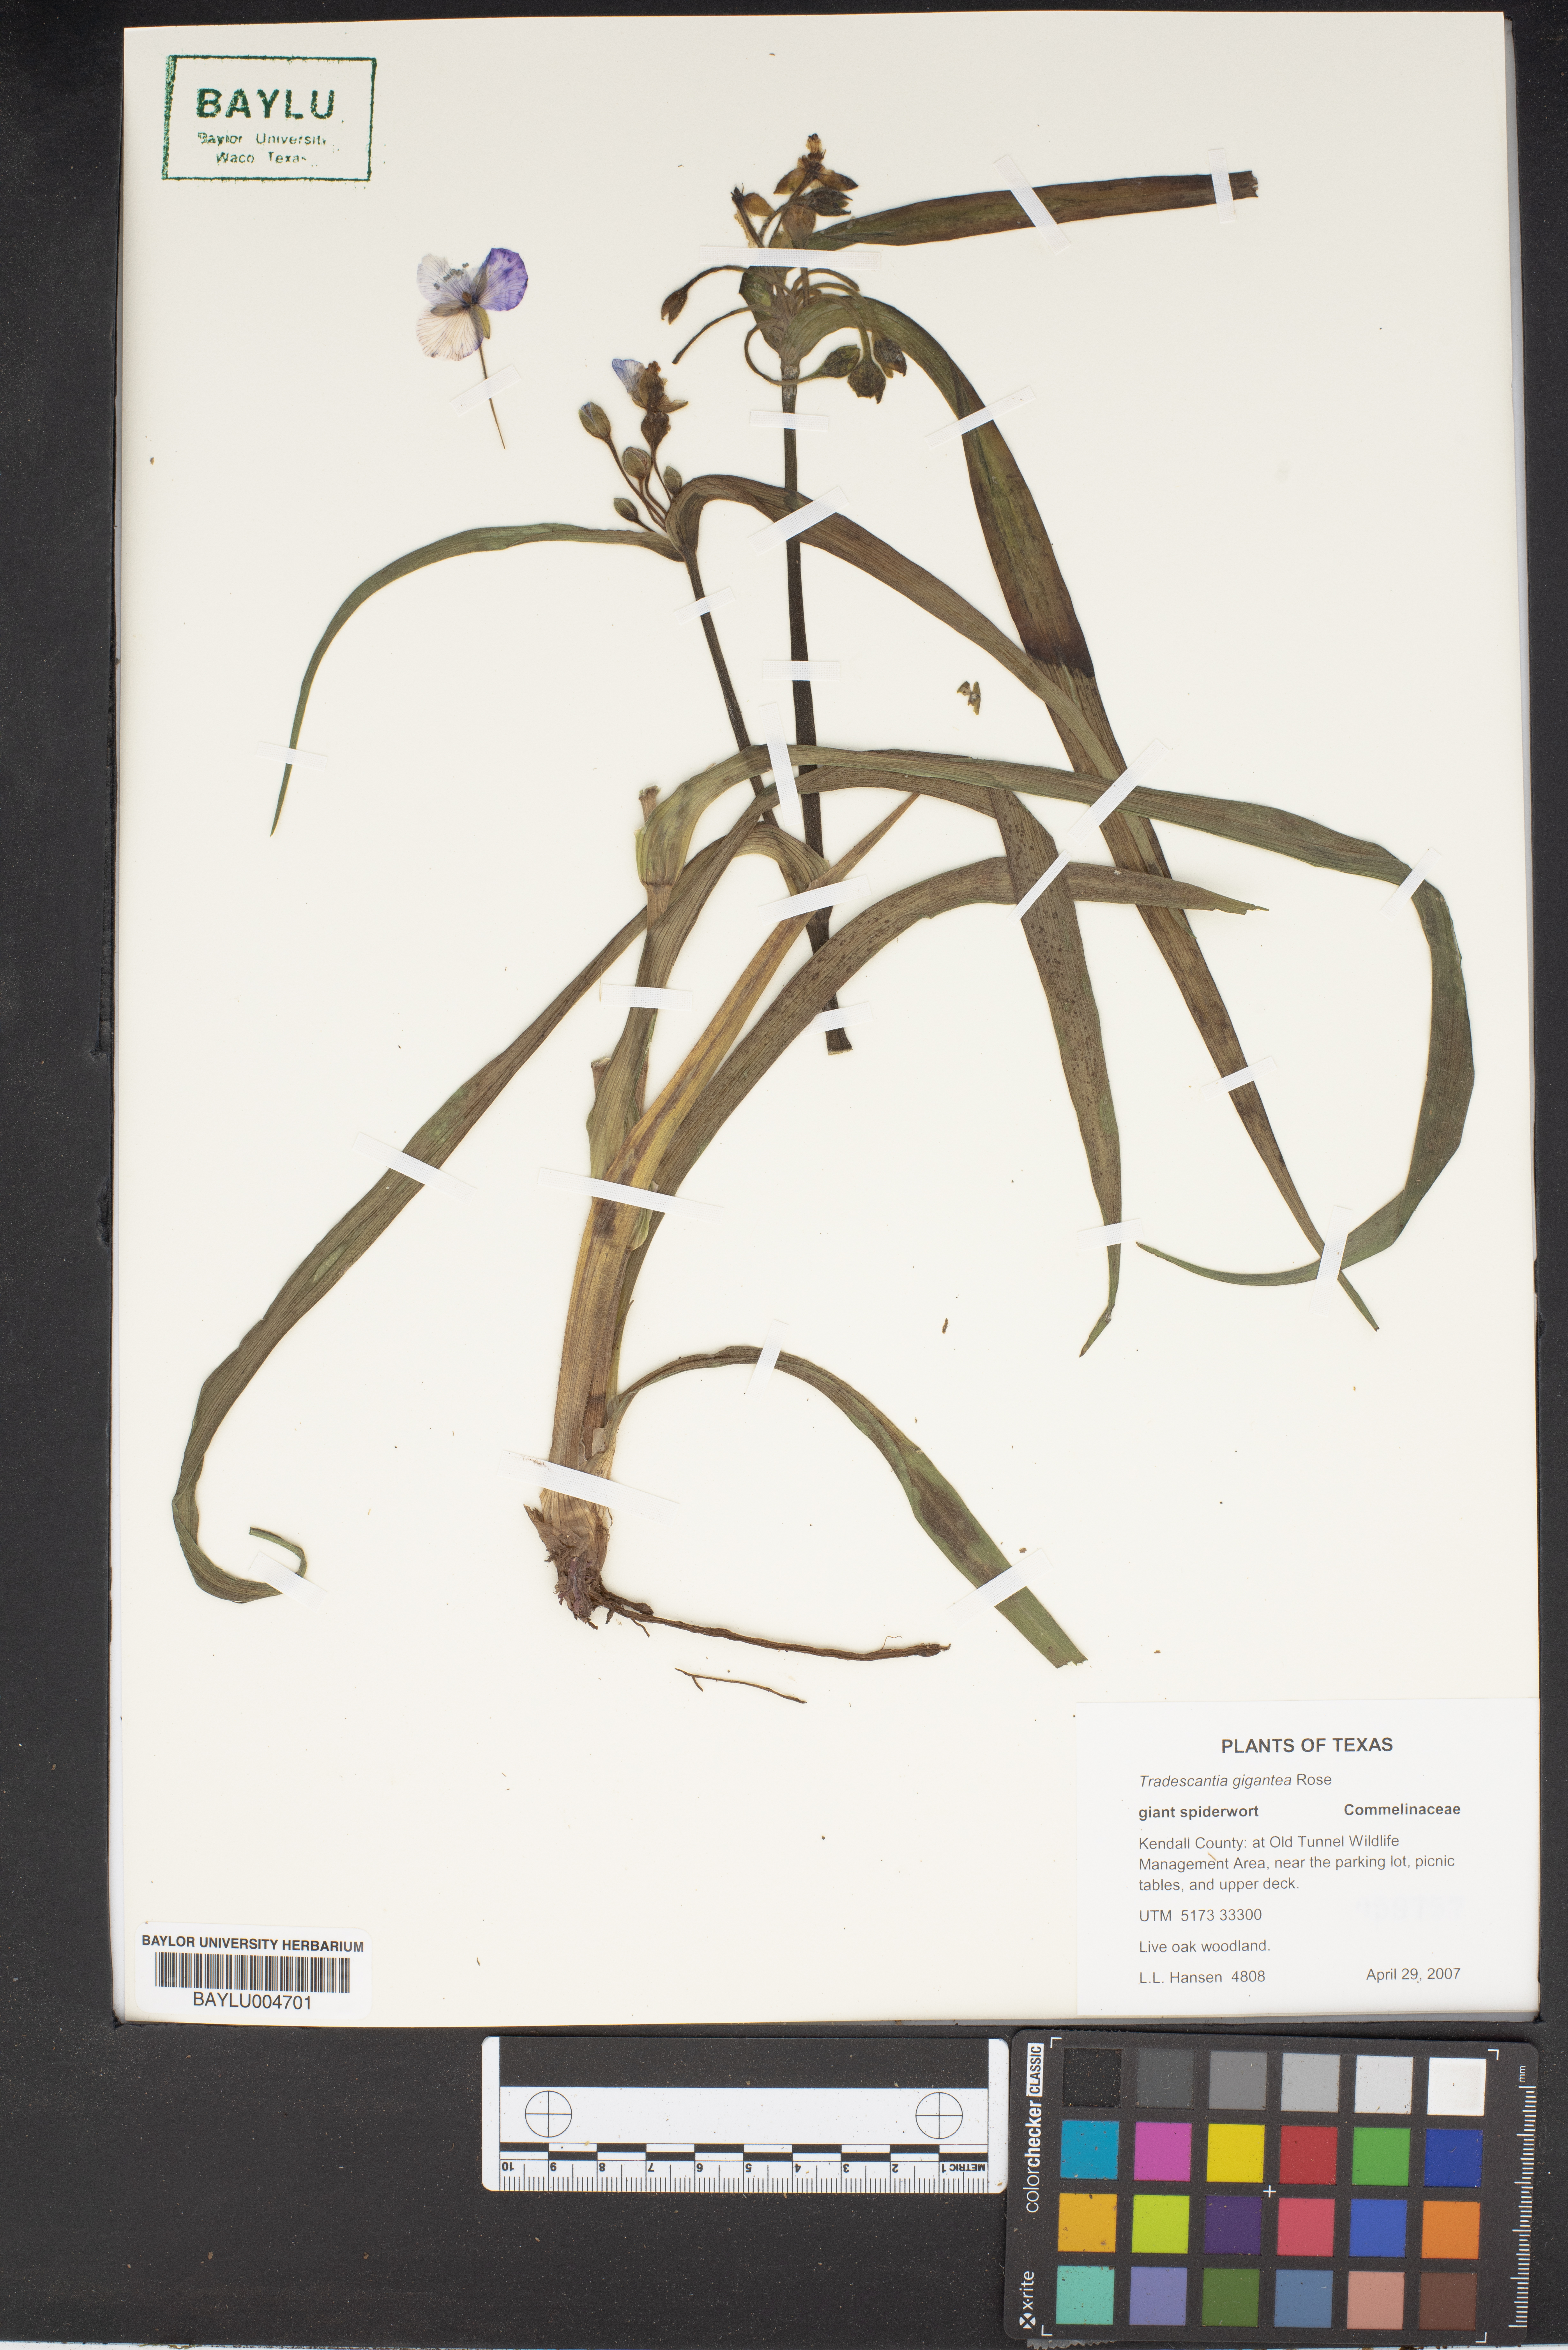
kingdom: Plantae
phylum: Tracheophyta
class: Liliopsida
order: Commelinales
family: Commelinaceae
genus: Tradescantia
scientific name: Tradescantia gigantea
